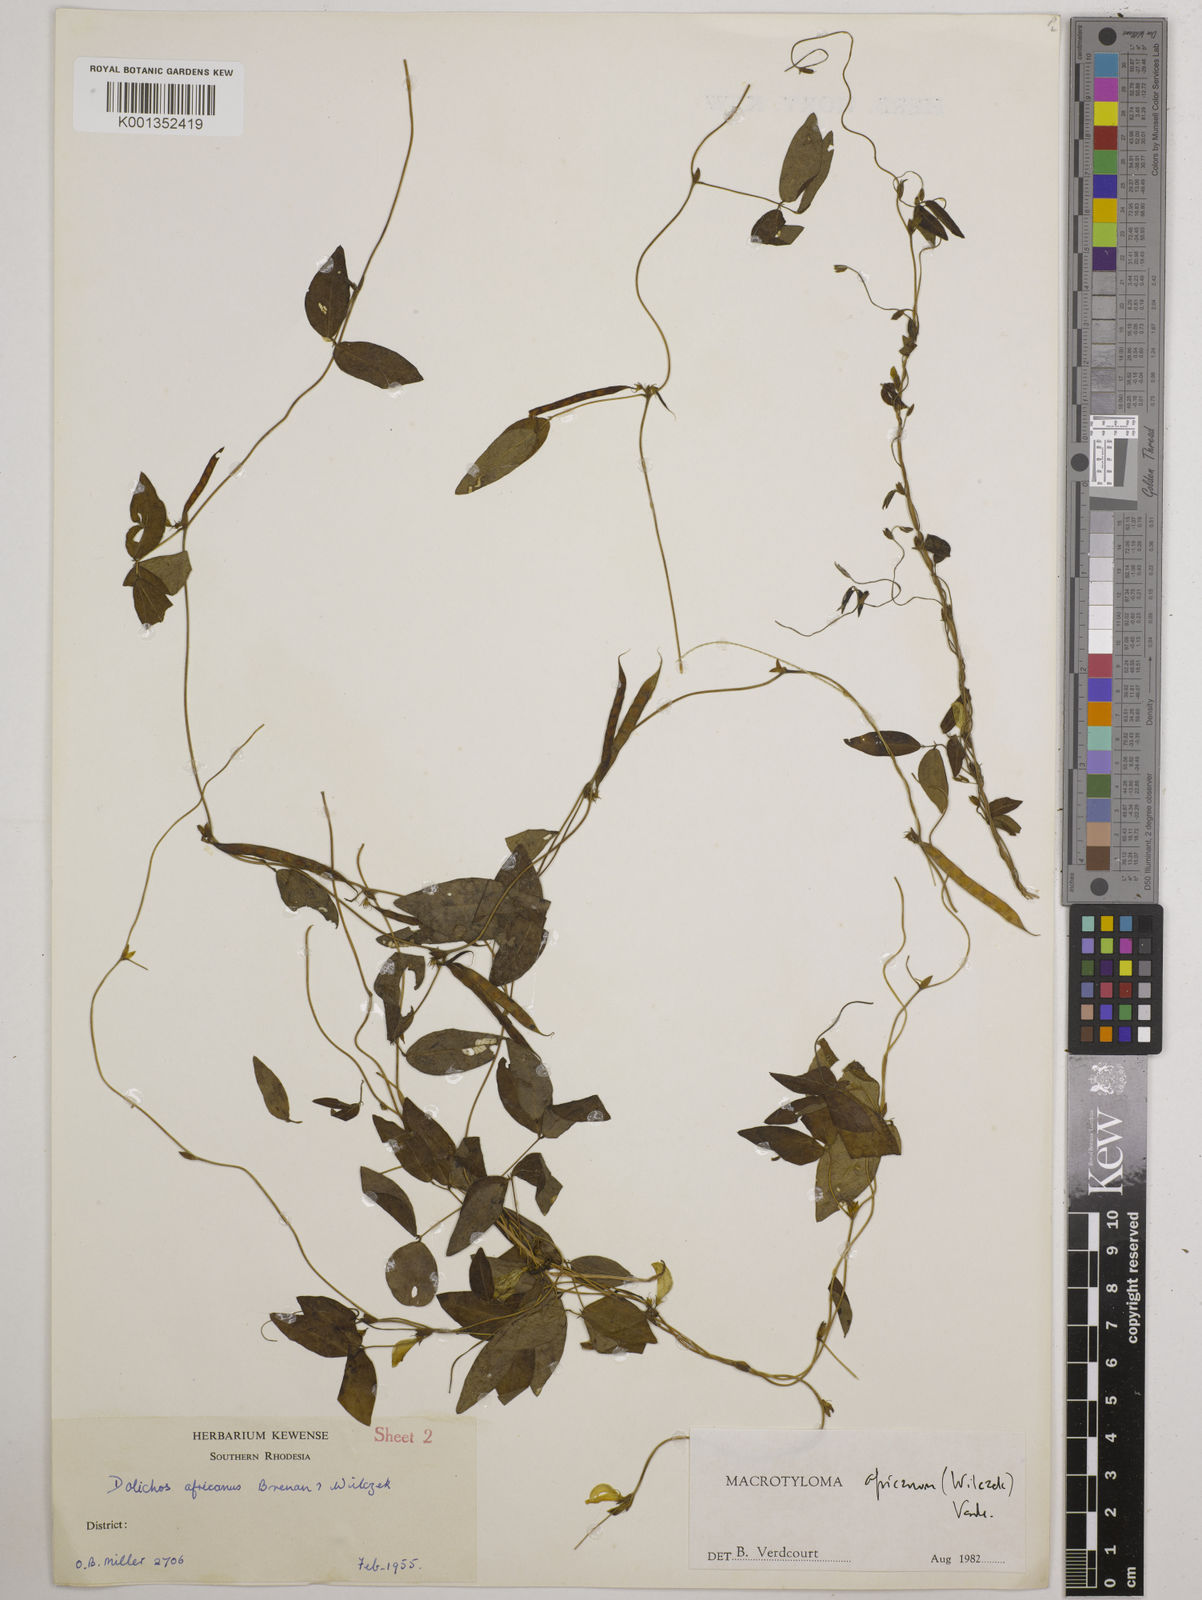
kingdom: Plantae
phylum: Tracheophyta
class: Magnoliopsida
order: Fabales
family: Fabaceae
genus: Macrotyloma
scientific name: Macrotyloma africanum
